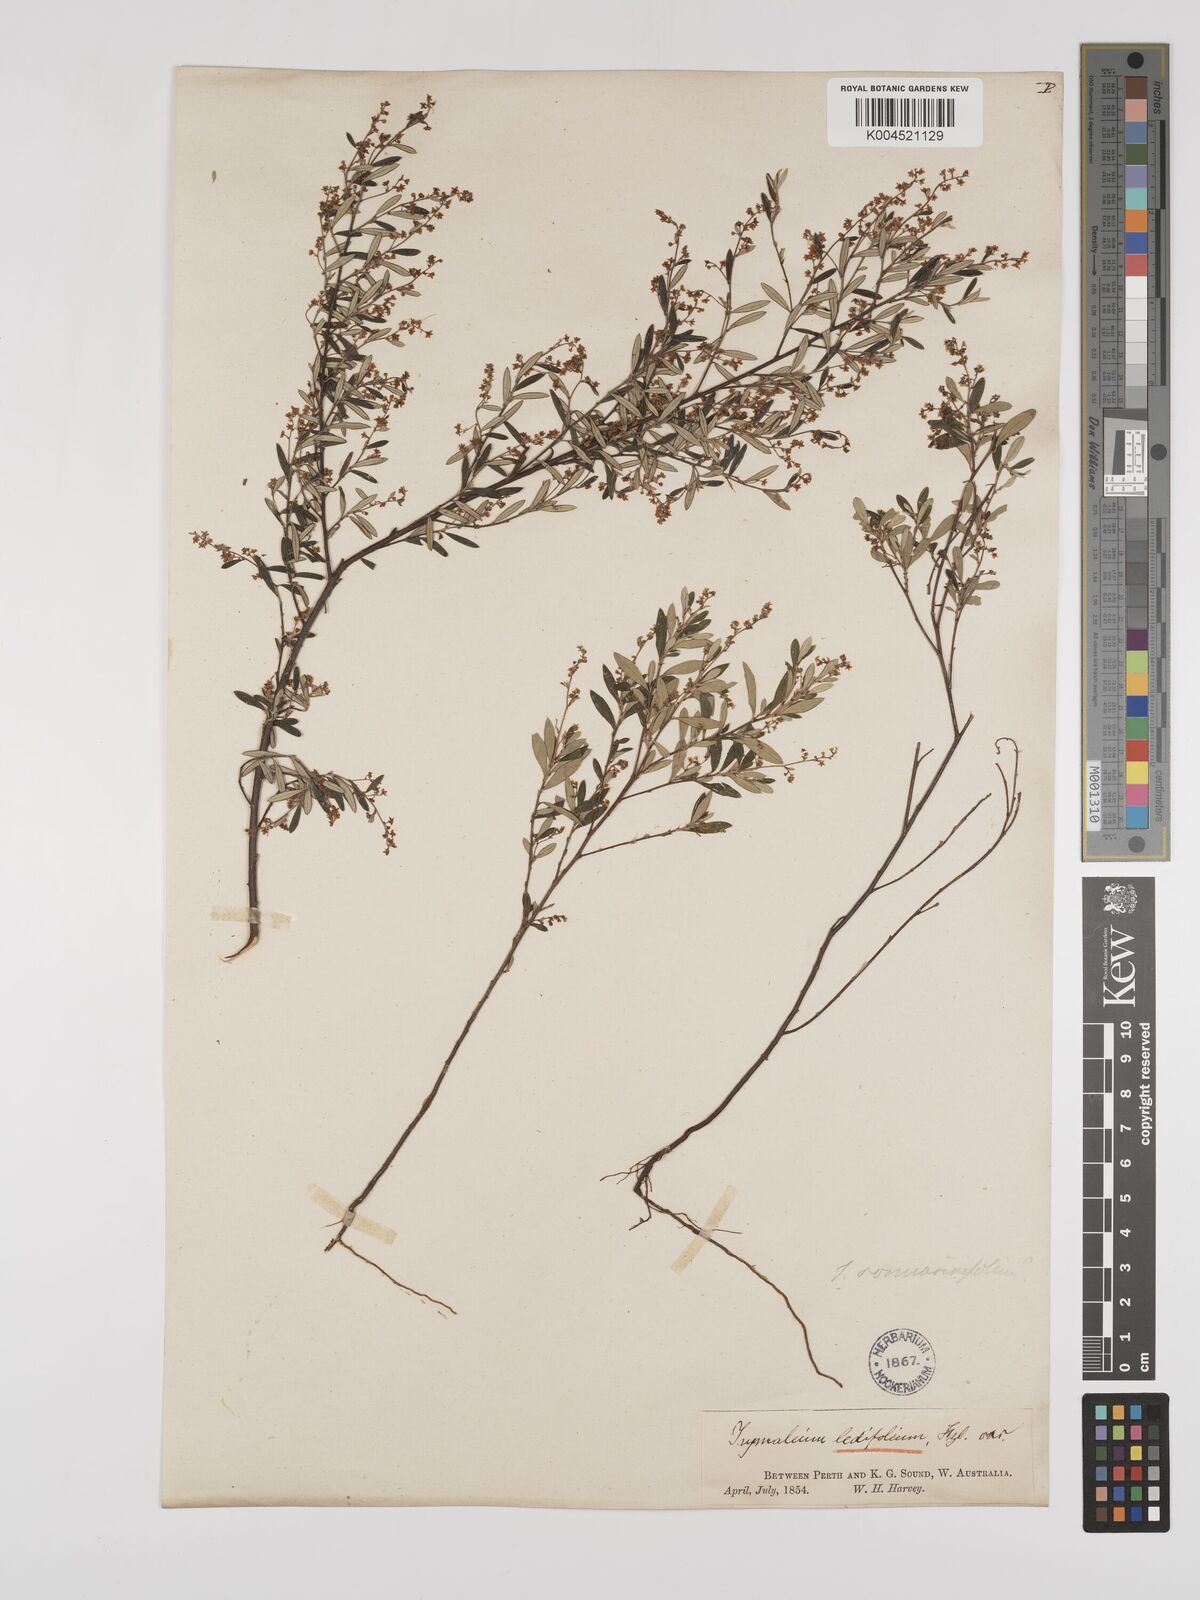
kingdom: Plantae
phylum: Tracheophyta
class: Magnoliopsida
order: Rosales
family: Rhamnaceae
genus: Trymalium
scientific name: Trymalium ledifolium
